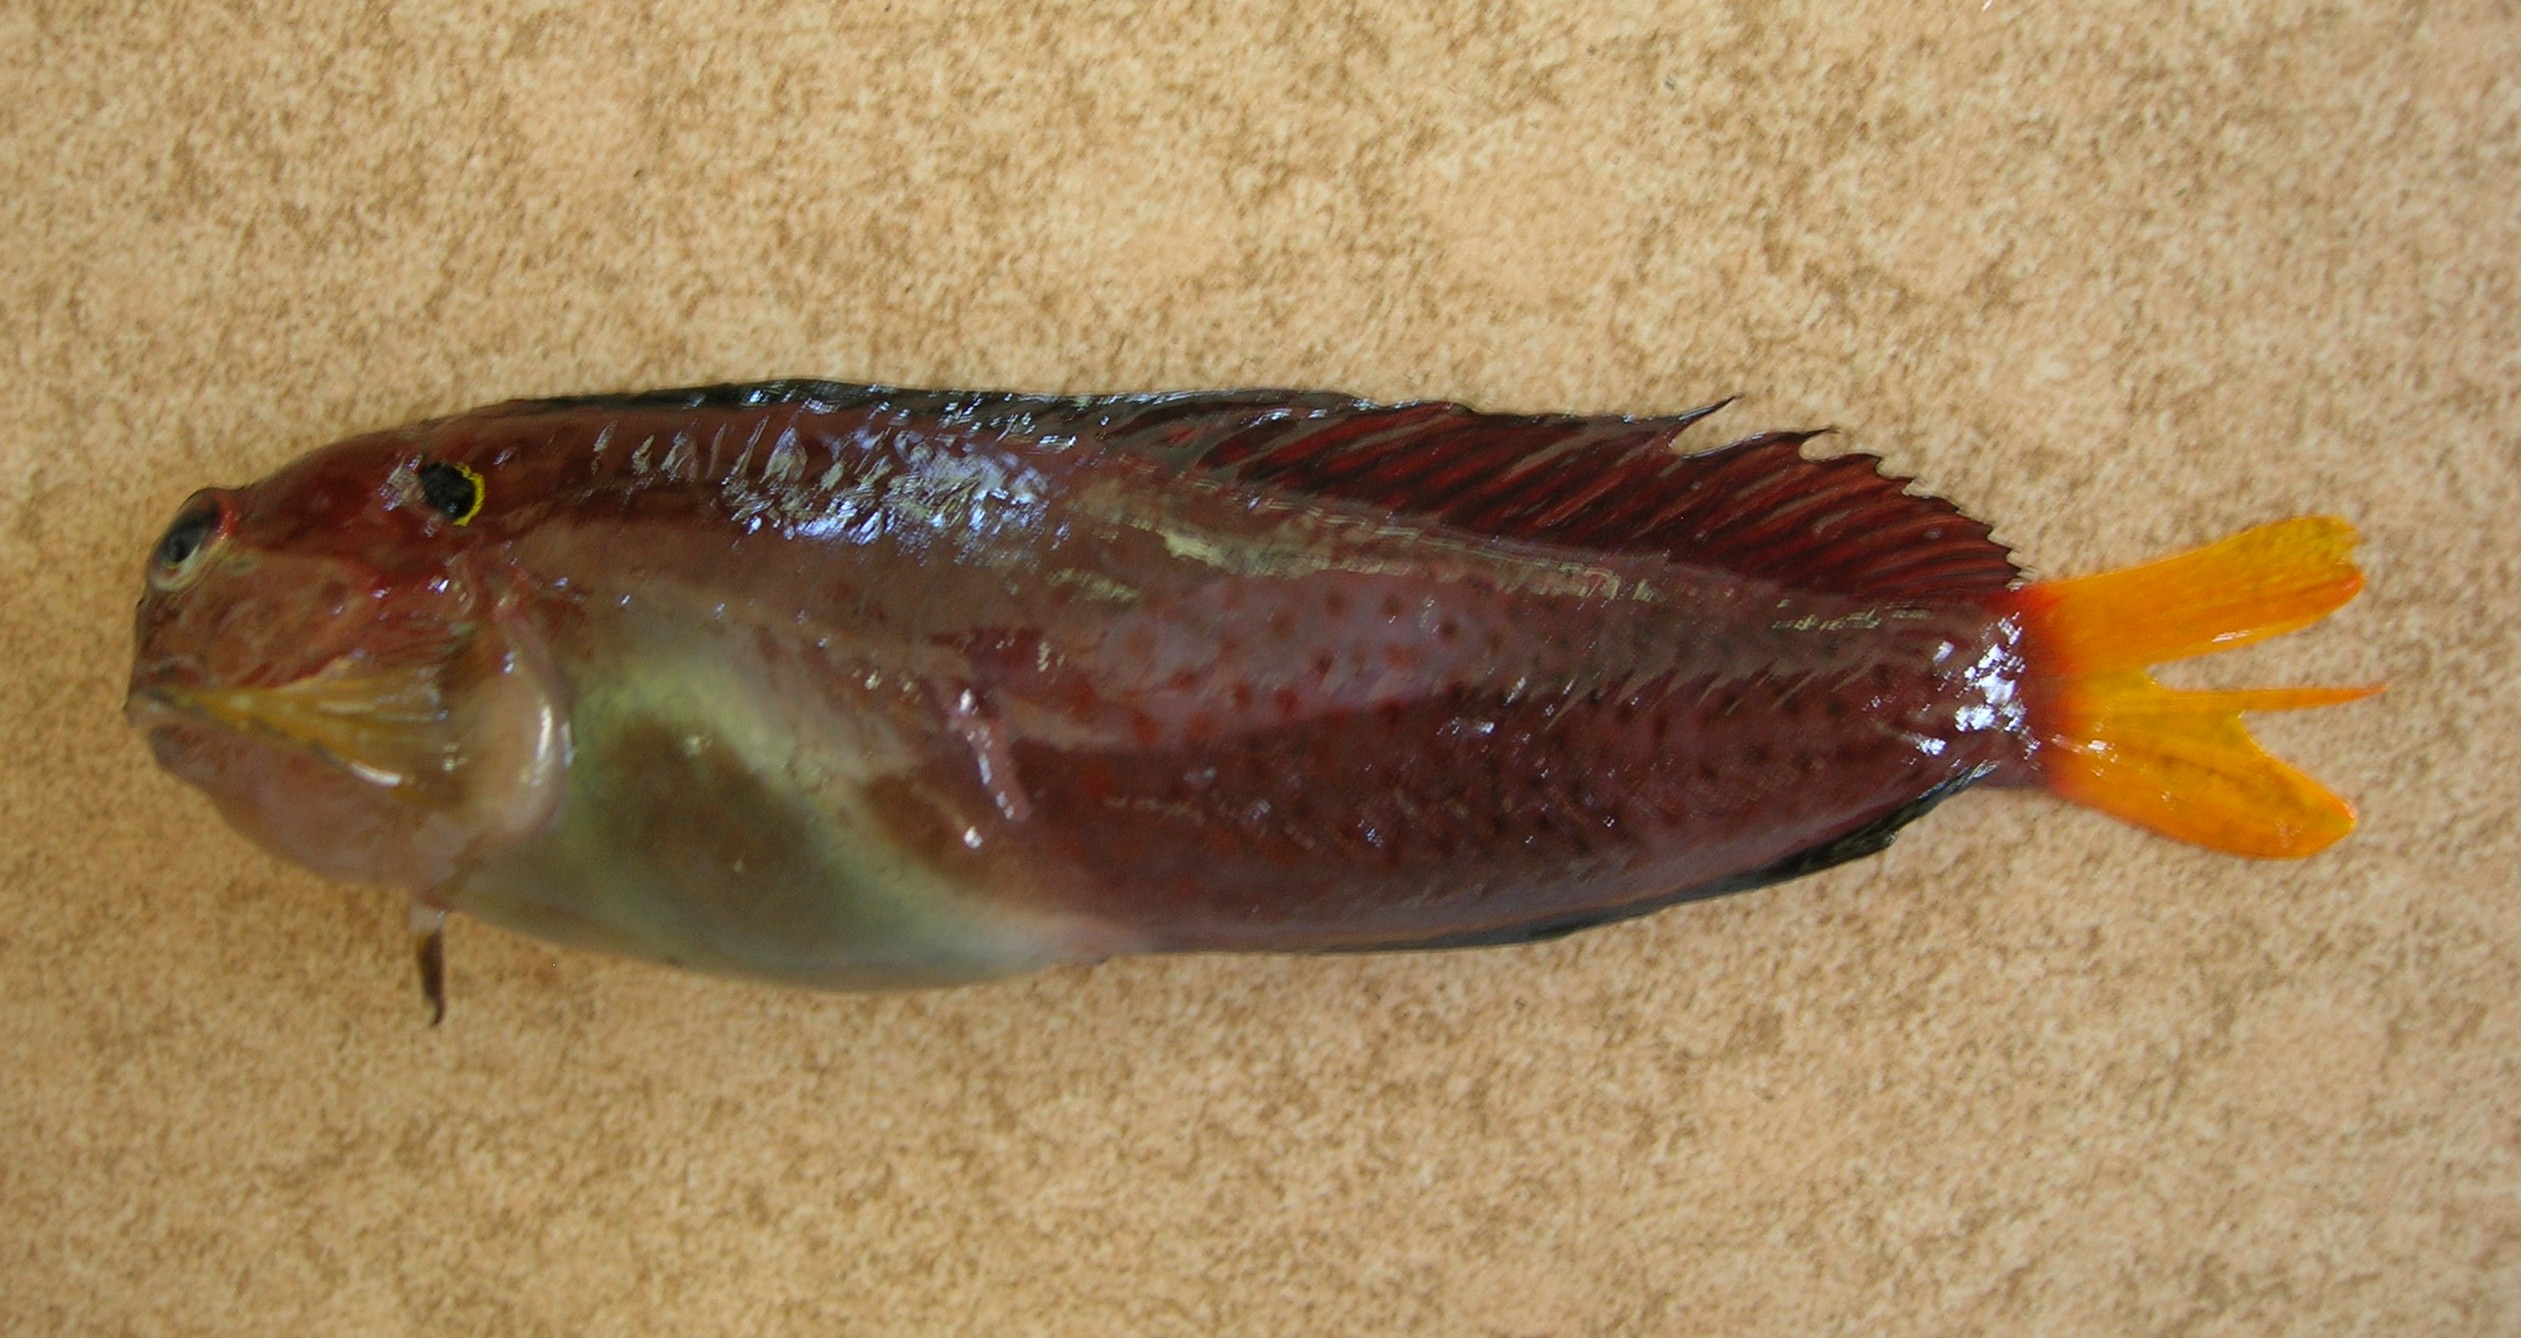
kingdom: Animalia
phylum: Chordata
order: Perciformes
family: Blenniidae
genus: Cirripectes
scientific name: Cirripectes heemstraorum
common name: Yellowtail blenny
